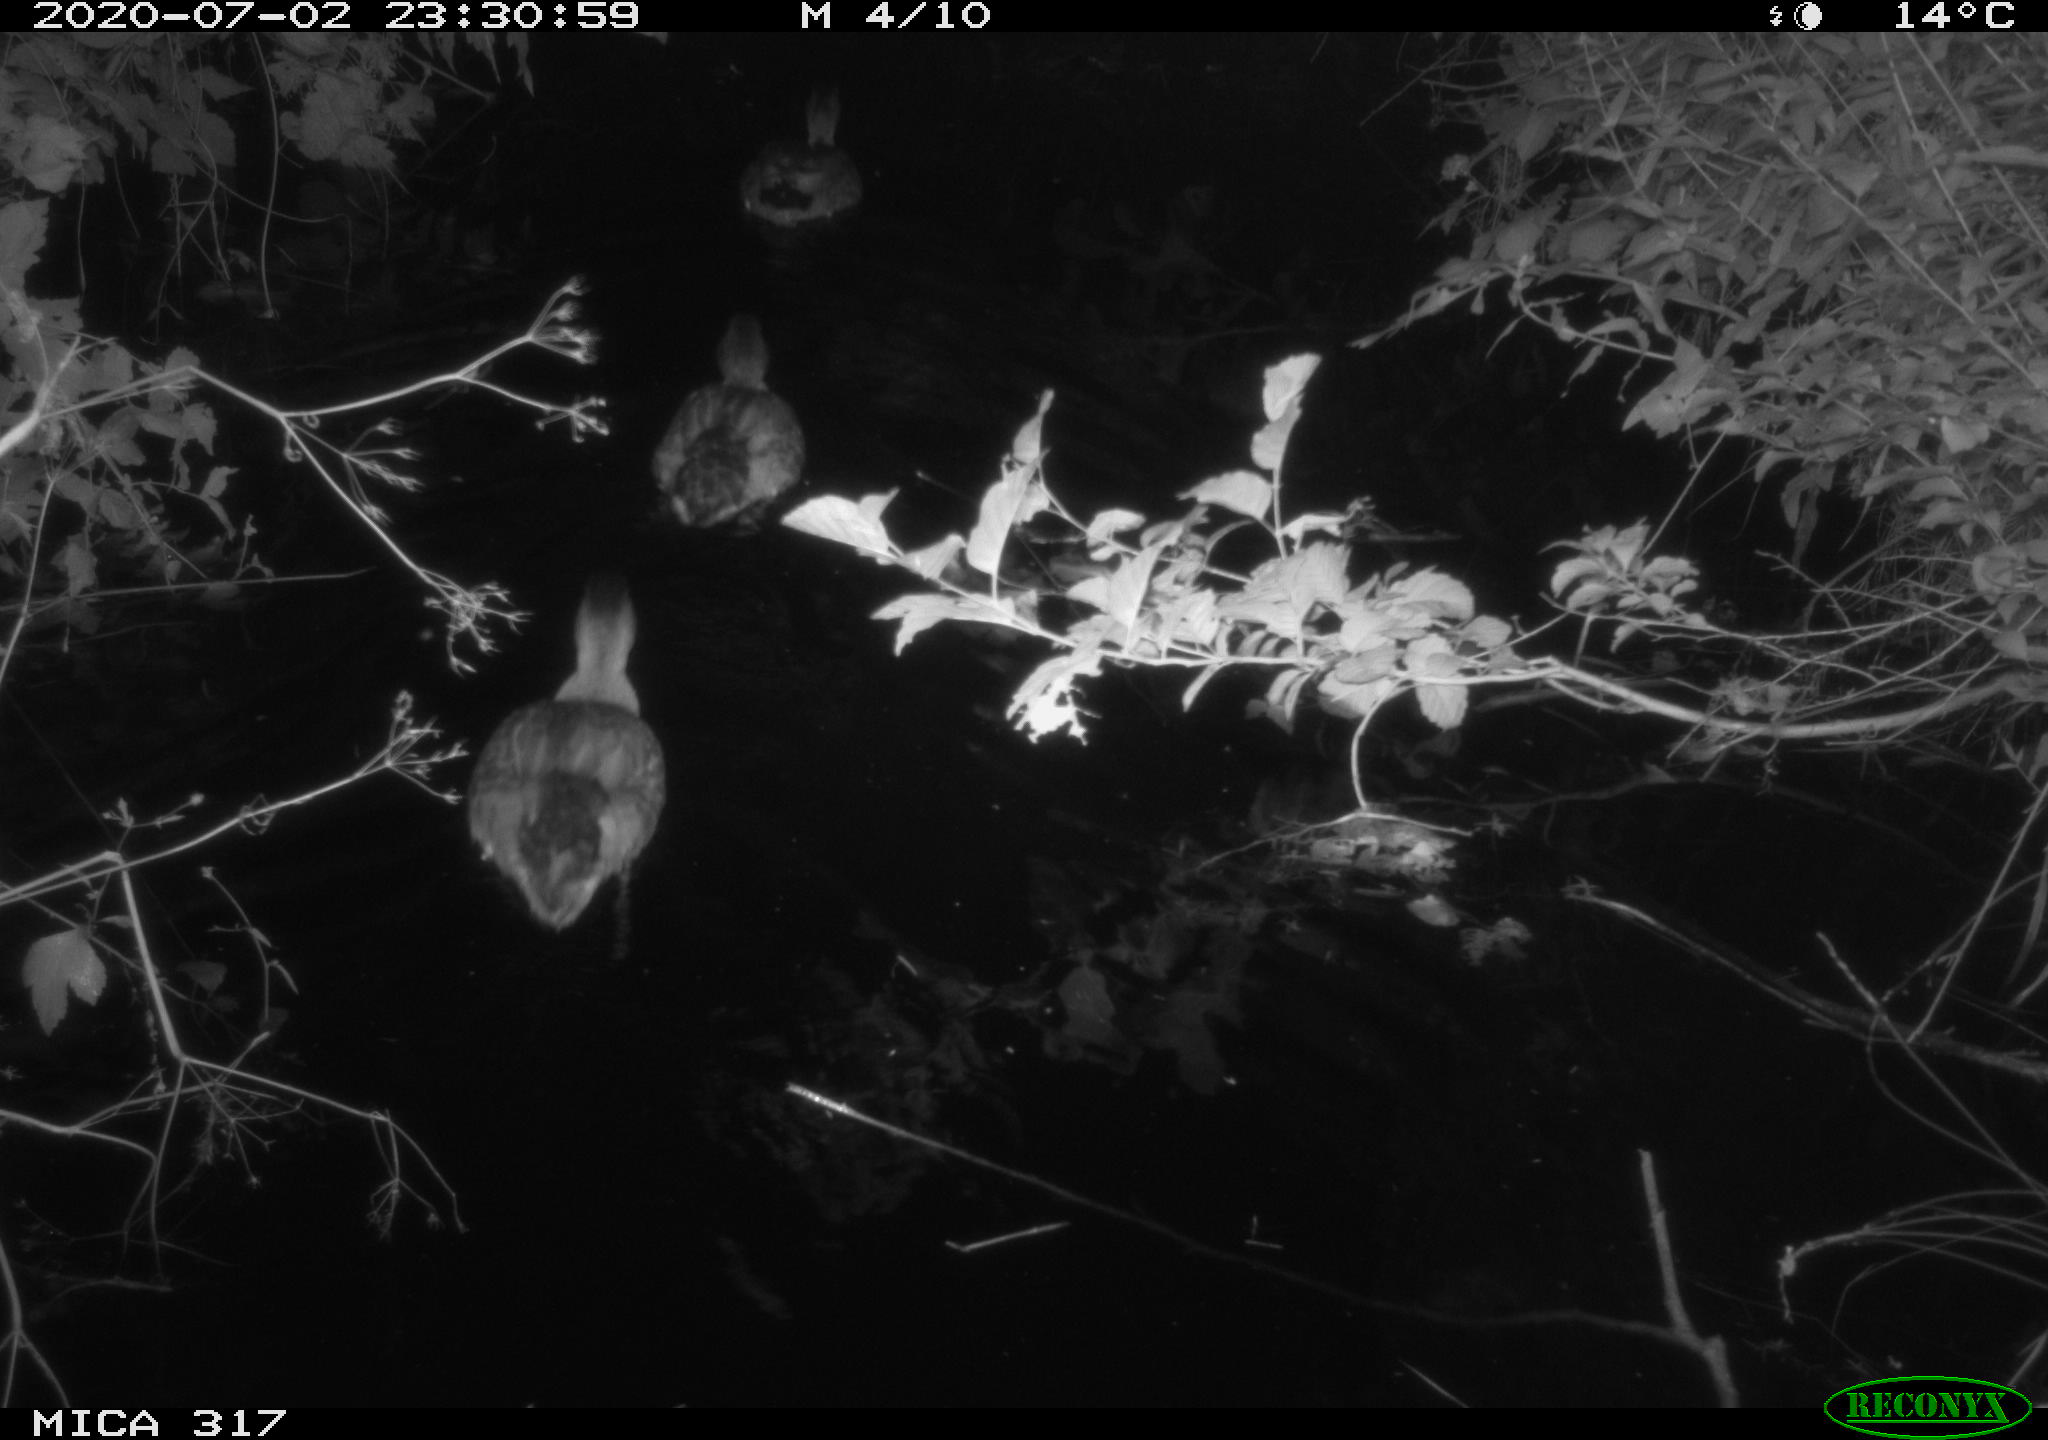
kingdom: Animalia
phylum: Chordata
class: Aves
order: Anseriformes
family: Anatidae
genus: Anas
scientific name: Anas platyrhynchos
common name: Mallard
